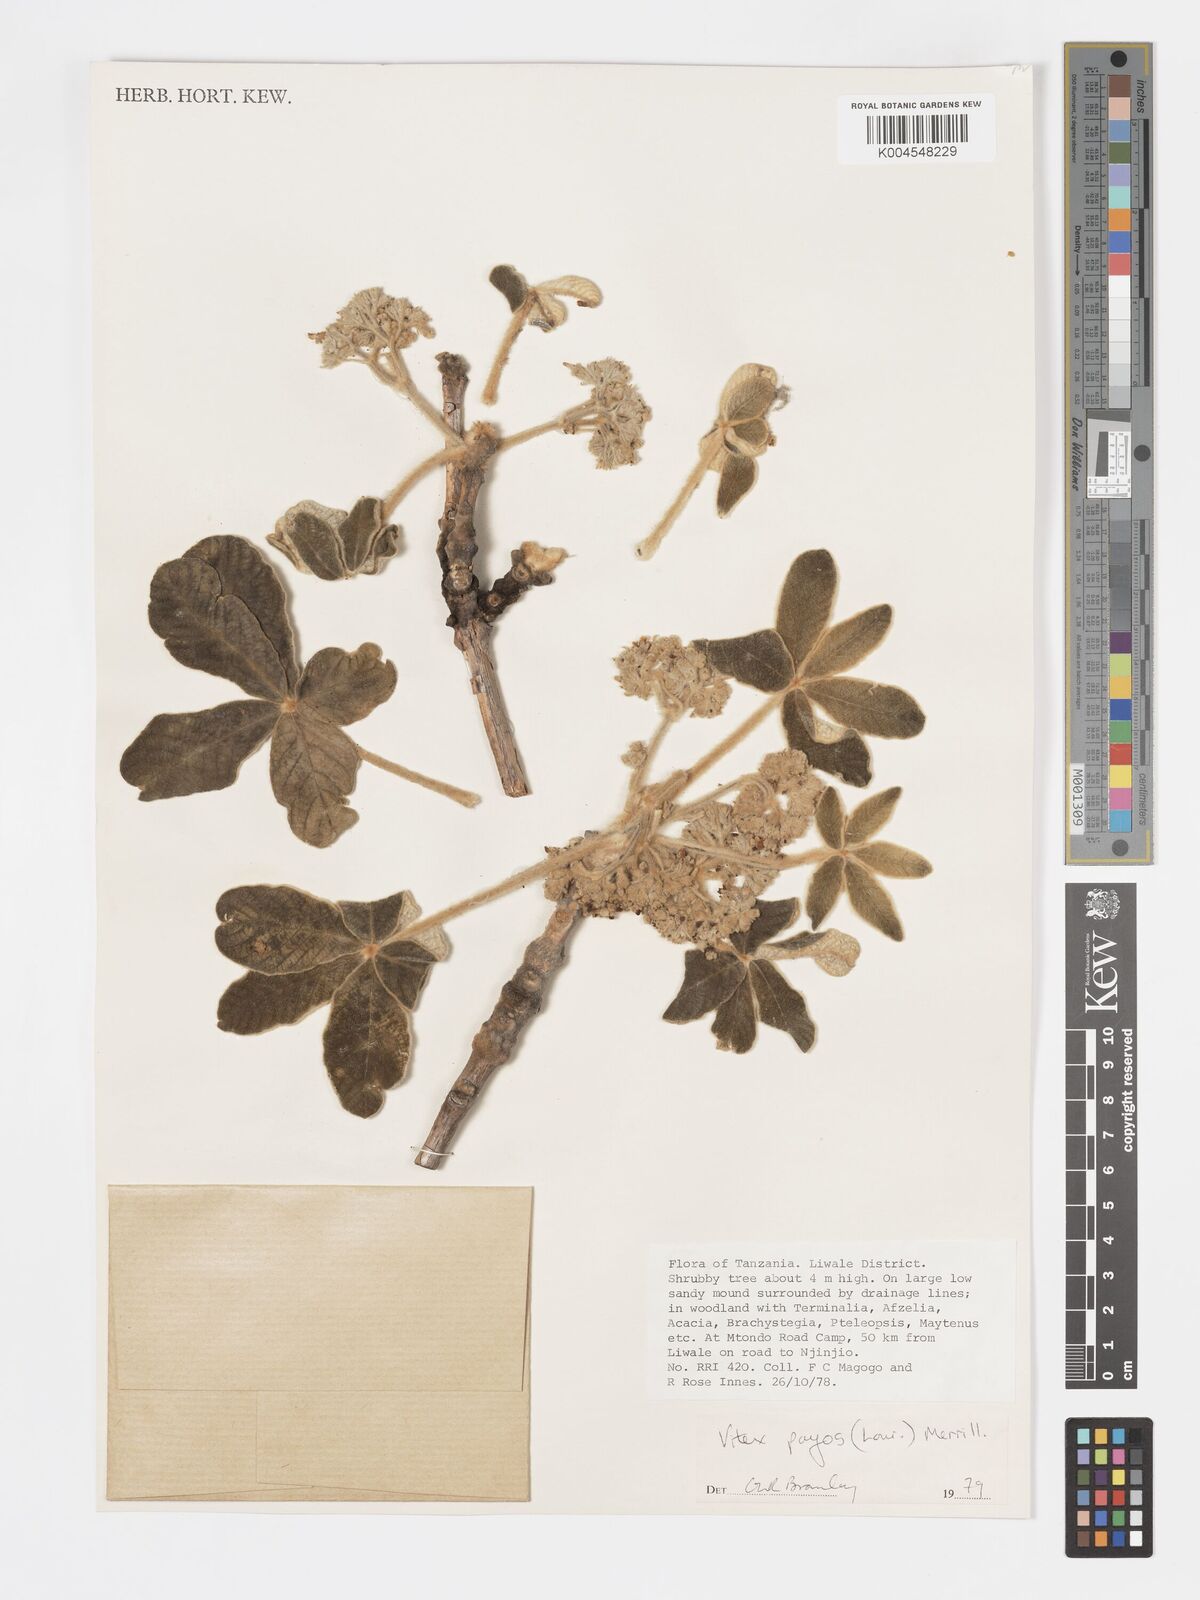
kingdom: Plantae
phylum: Tracheophyta
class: Magnoliopsida
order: Lamiales
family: Lamiaceae
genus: Vitex
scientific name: Vitex payos
